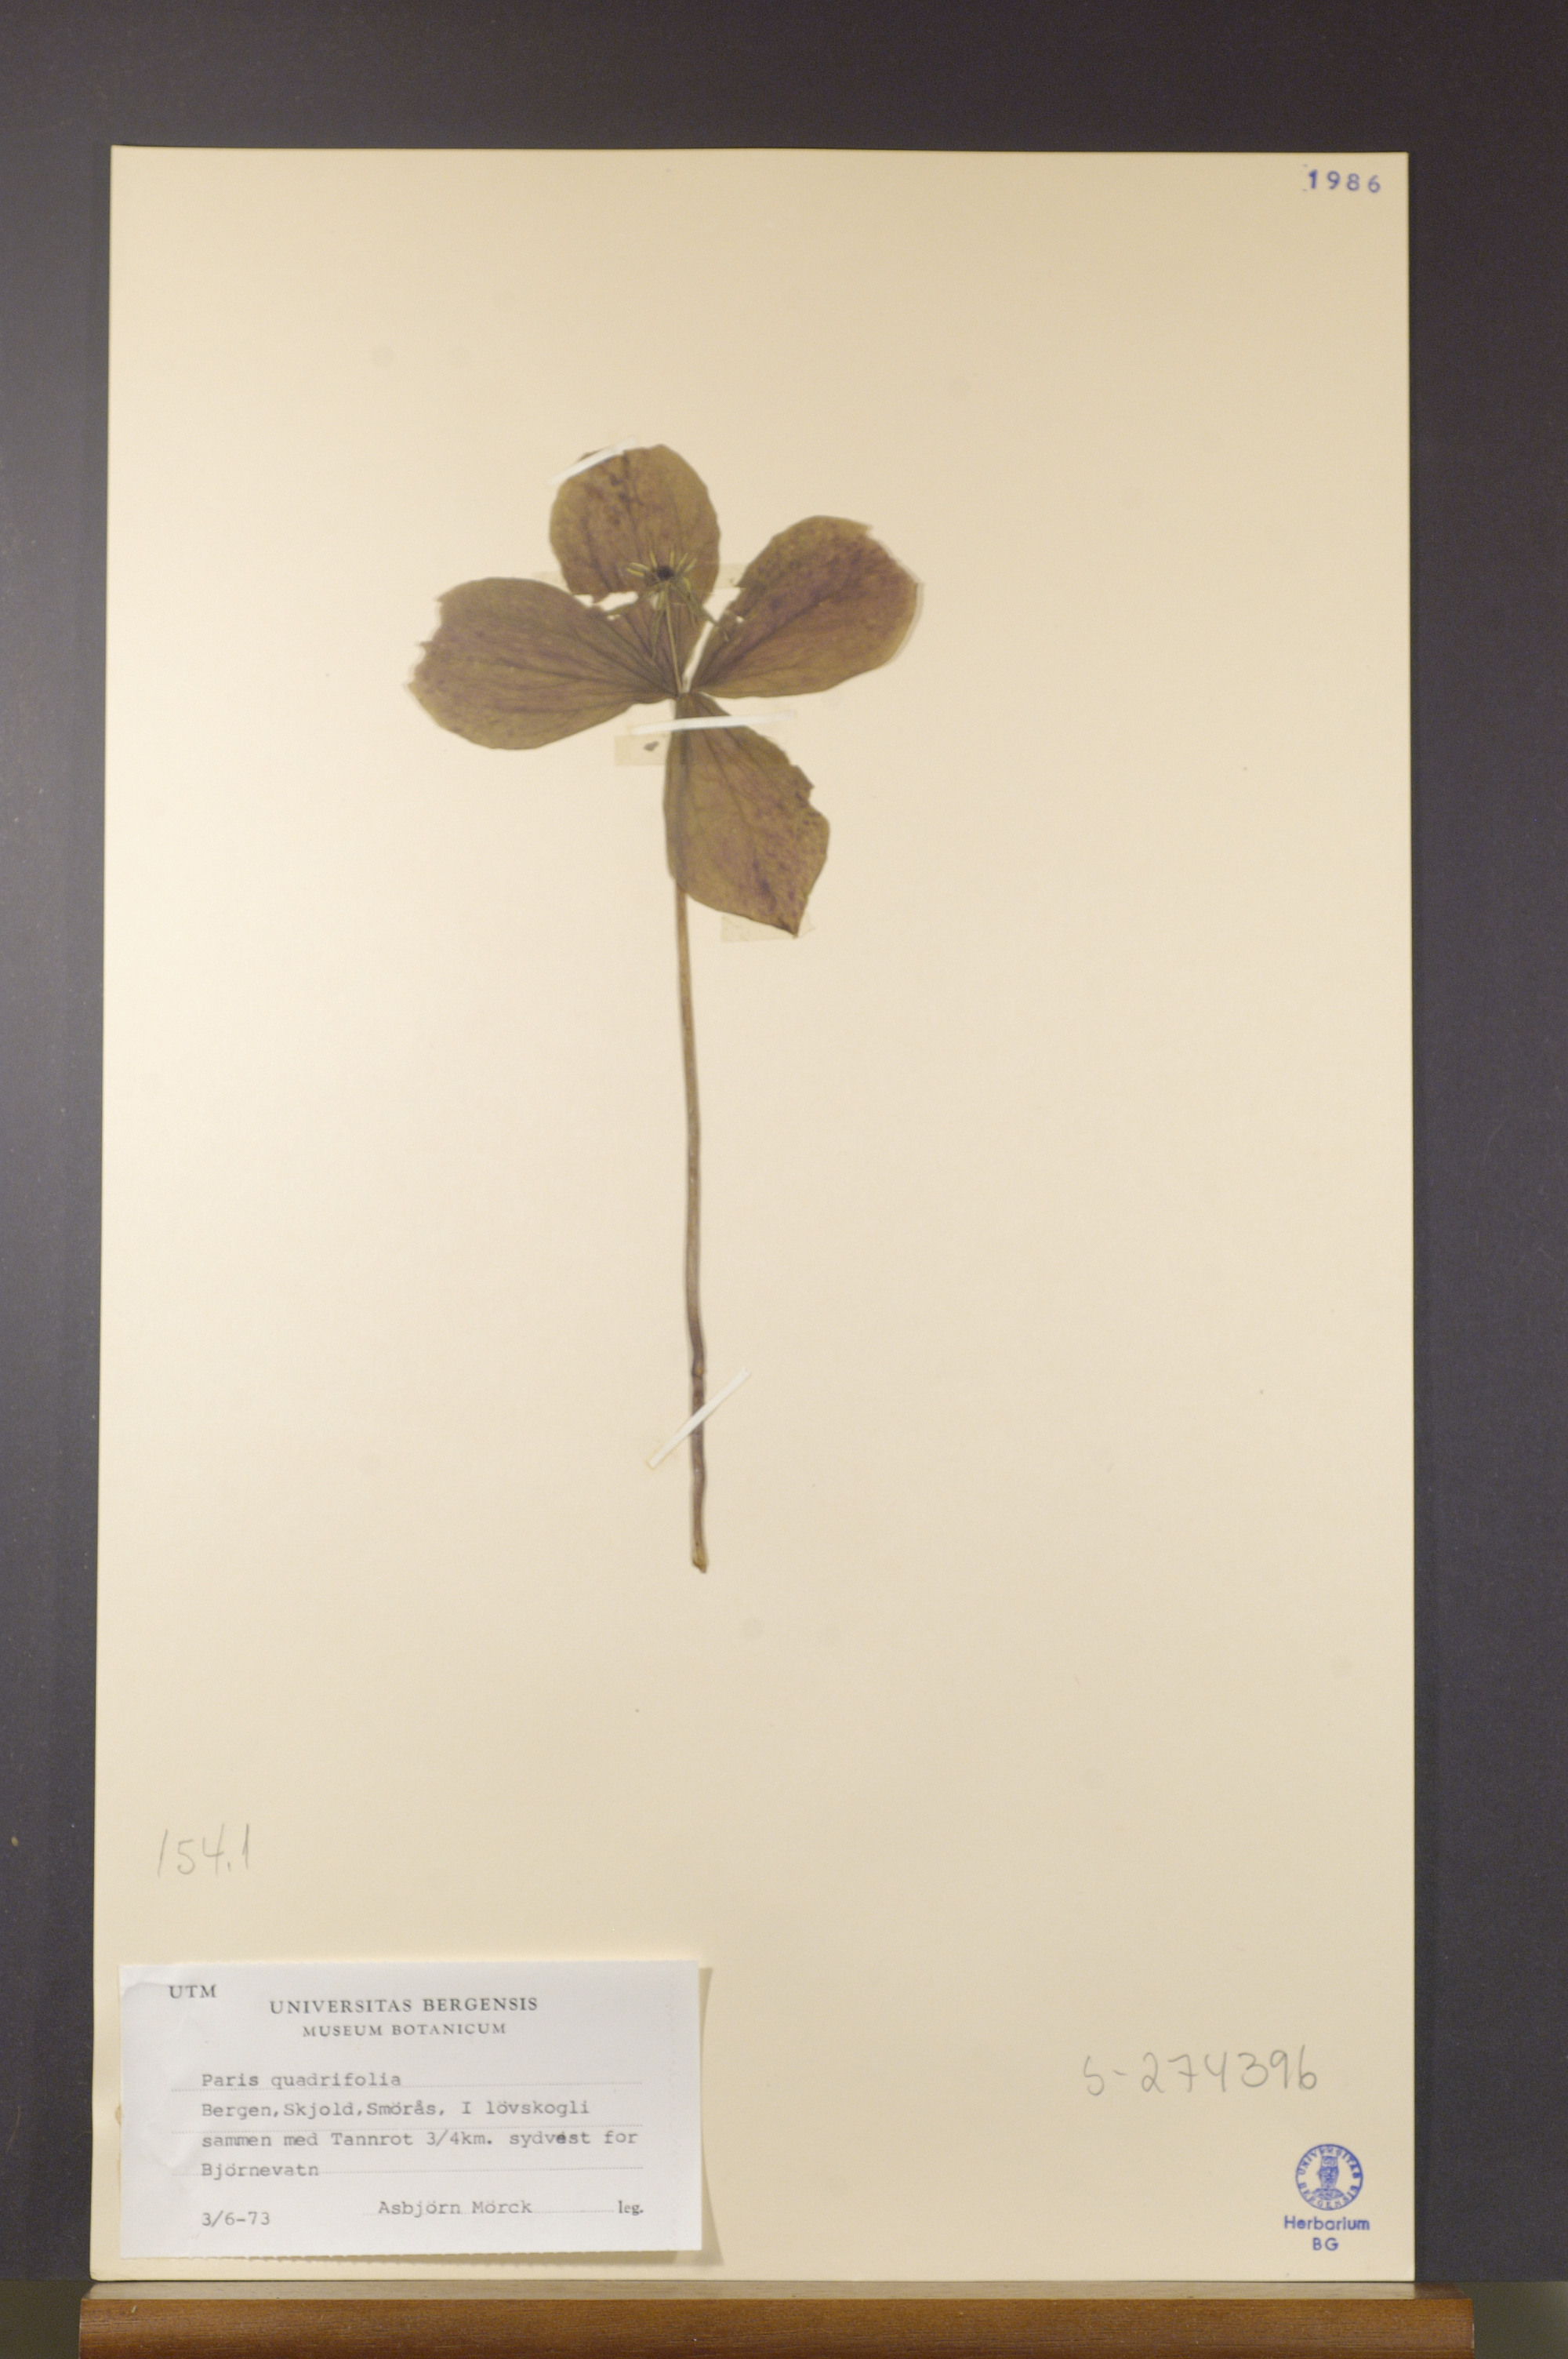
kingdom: Plantae
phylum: Tracheophyta
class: Liliopsida
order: Liliales
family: Melanthiaceae
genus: Paris
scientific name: Paris quadrifolia
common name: Herb-paris
